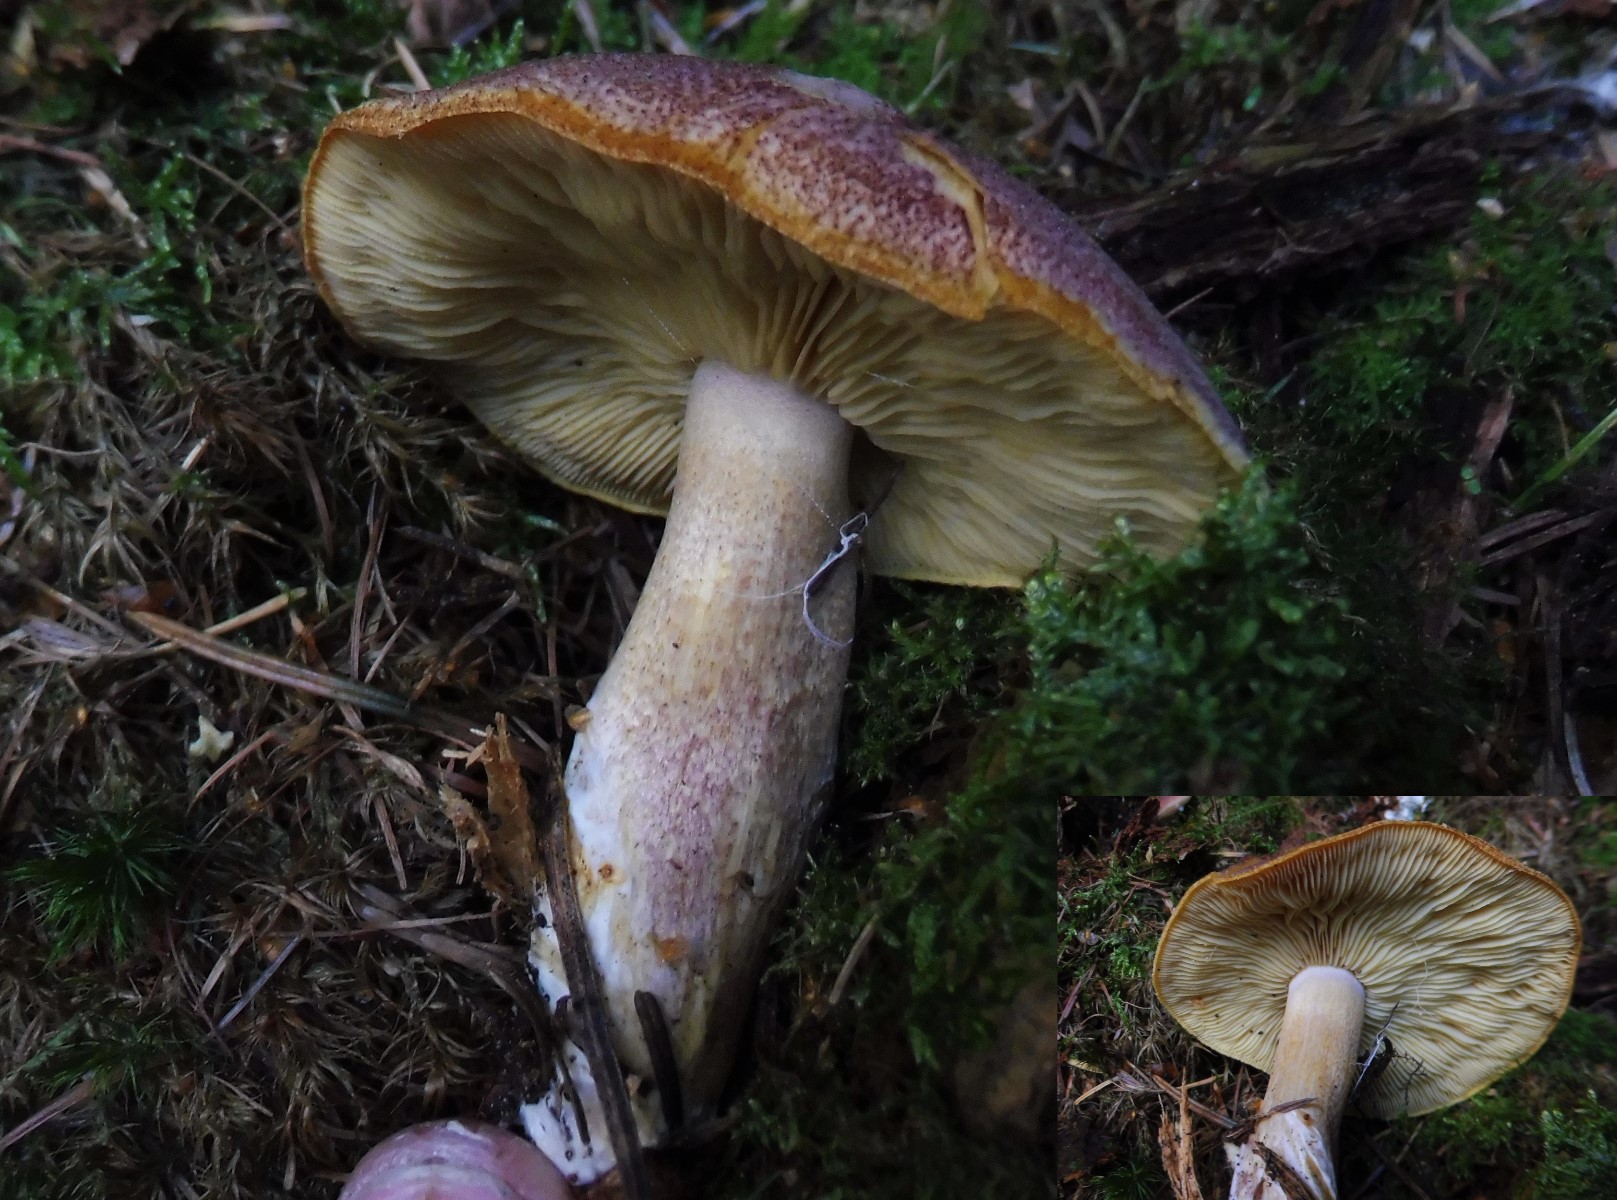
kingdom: Fungi
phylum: Basidiomycota
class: Agaricomycetes
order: Agaricales
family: Tricholomataceae
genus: Tricholomopsis
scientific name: Tricholomopsis rutilans
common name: purpur-væbnerhat
